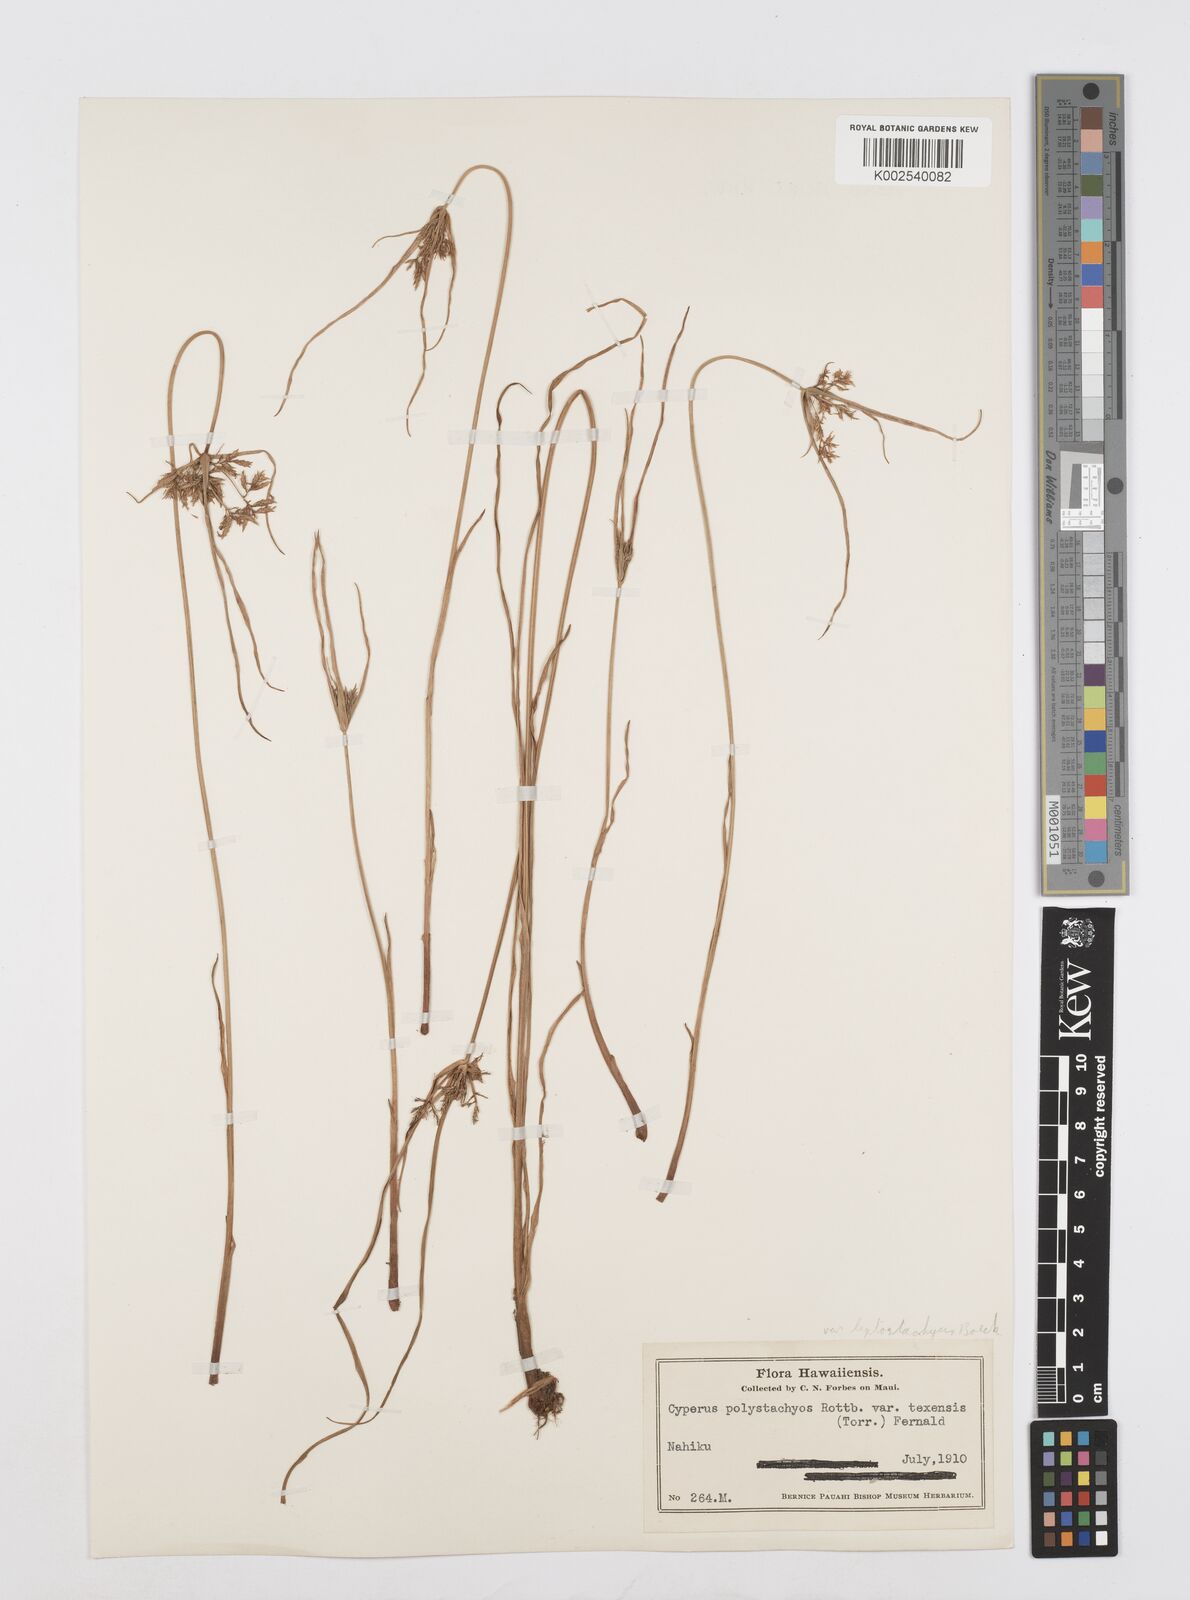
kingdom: Plantae
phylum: Tracheophyta
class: Liliopsida
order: Poales
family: Cyperaceae
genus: Cyperus
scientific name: Cyperus polystachyos
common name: Bunchy flat sedge
